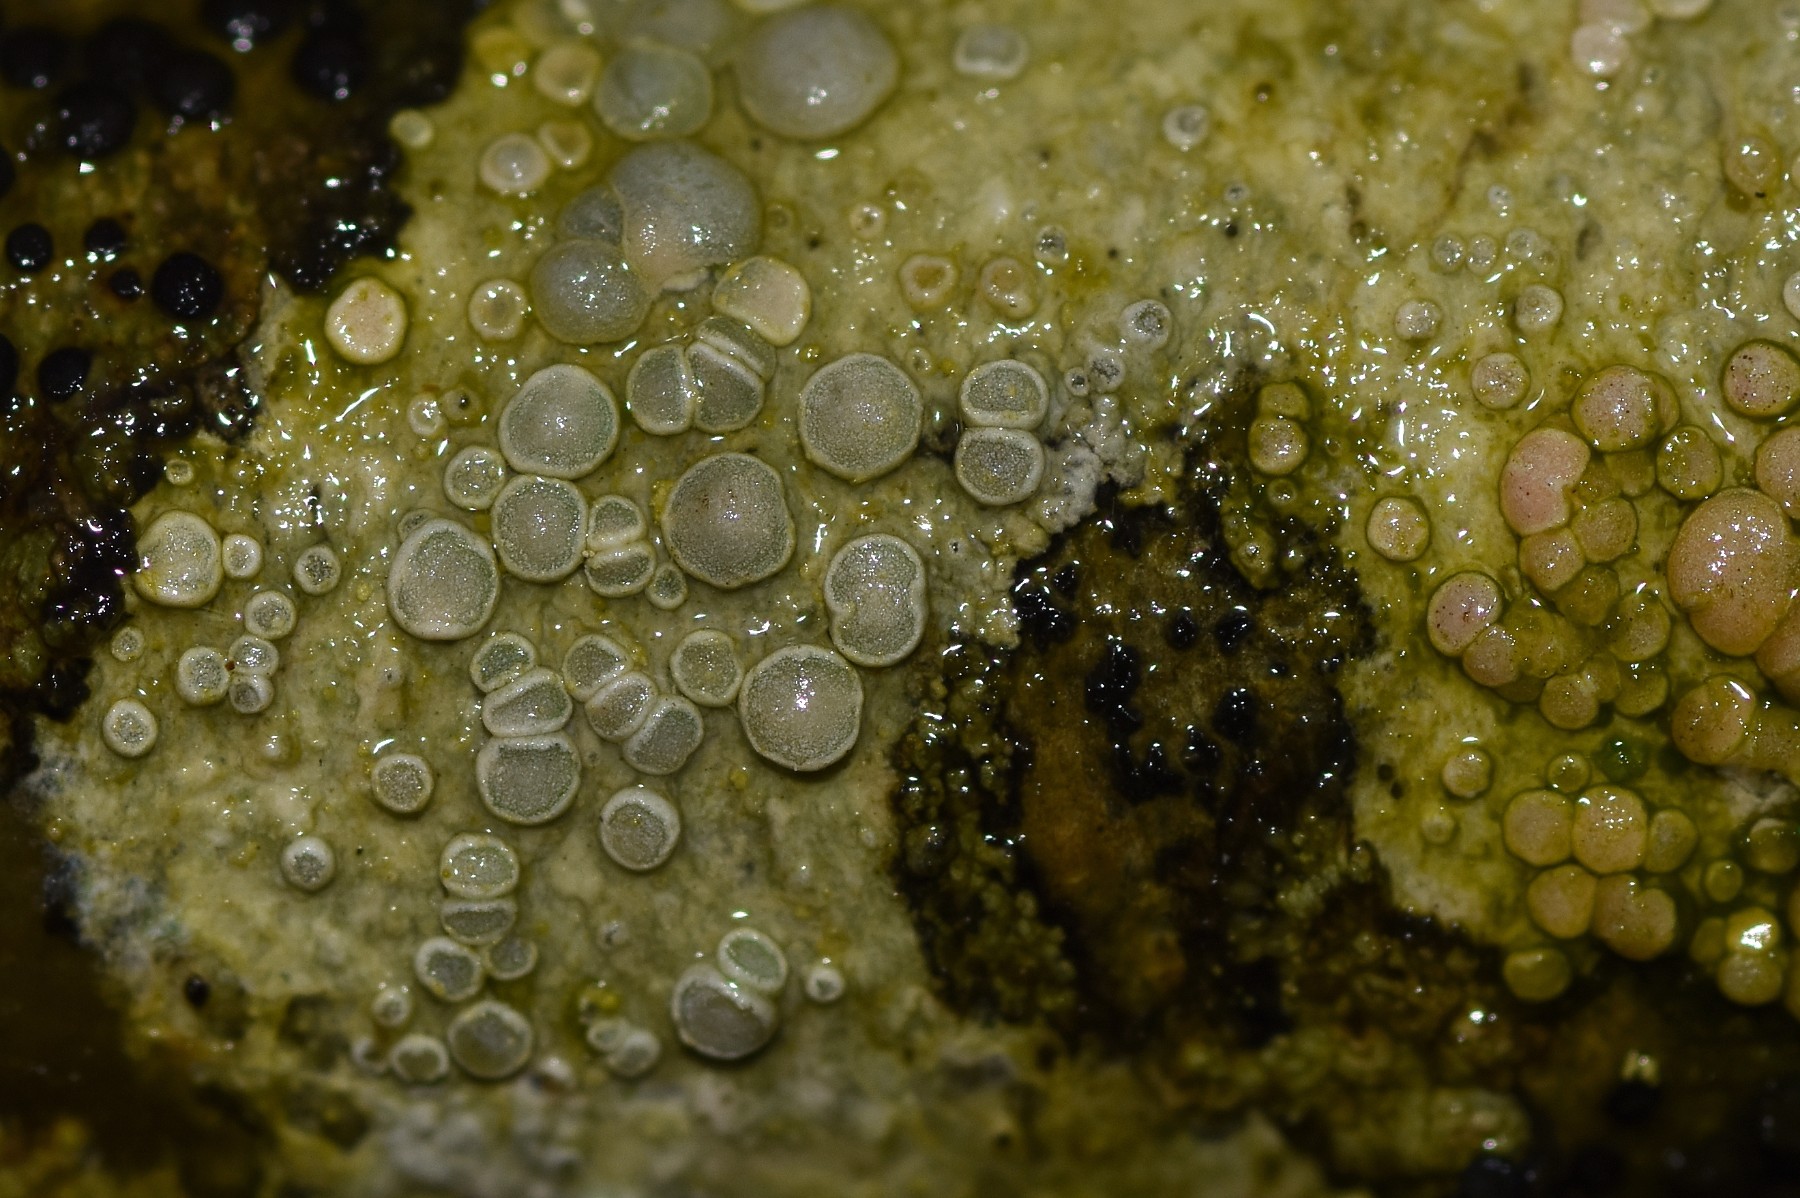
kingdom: Fungi
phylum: Ascomycota
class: Lecanoromycetes
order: Lecanorales
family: Lecanoraceae
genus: Glaucomaria
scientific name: Glaucomaria carpinea
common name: hviddugget kantskivelav
